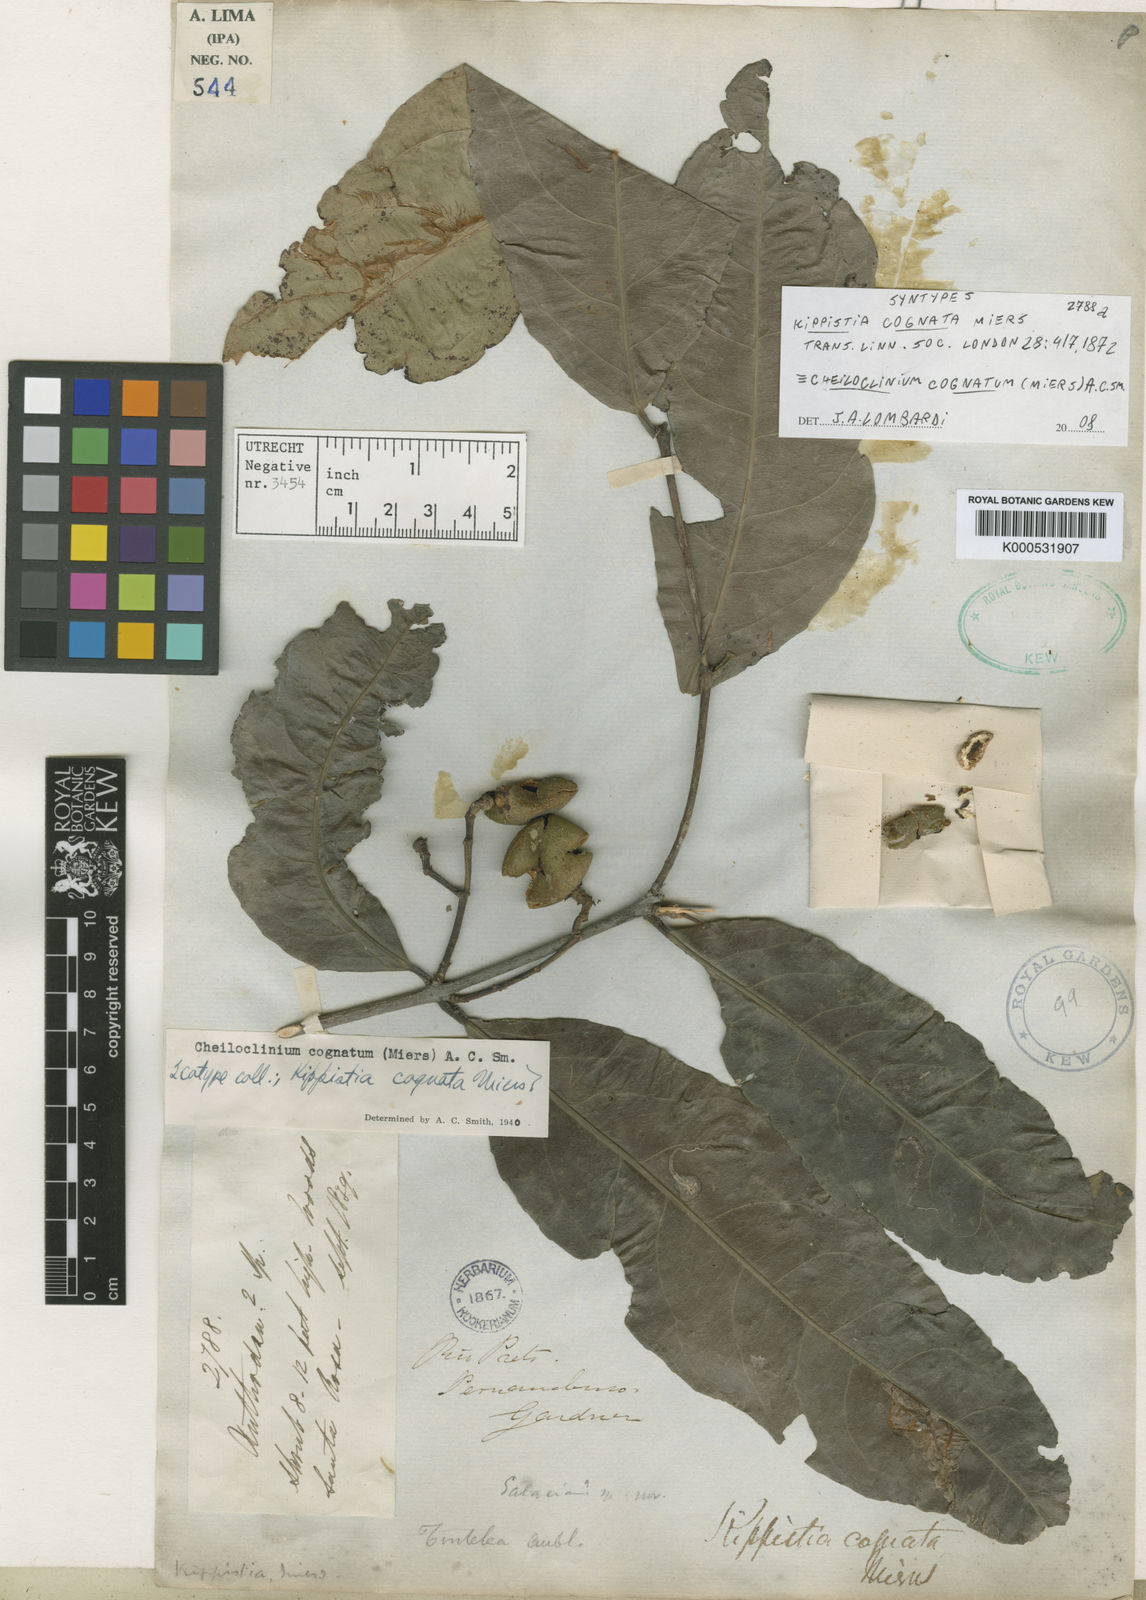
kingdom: Plantae
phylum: Tracheophyta
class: Magnoliopsida
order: Celastrales
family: Celastraceae
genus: Cheiloclinium
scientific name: Cheiloclinium cognatum
